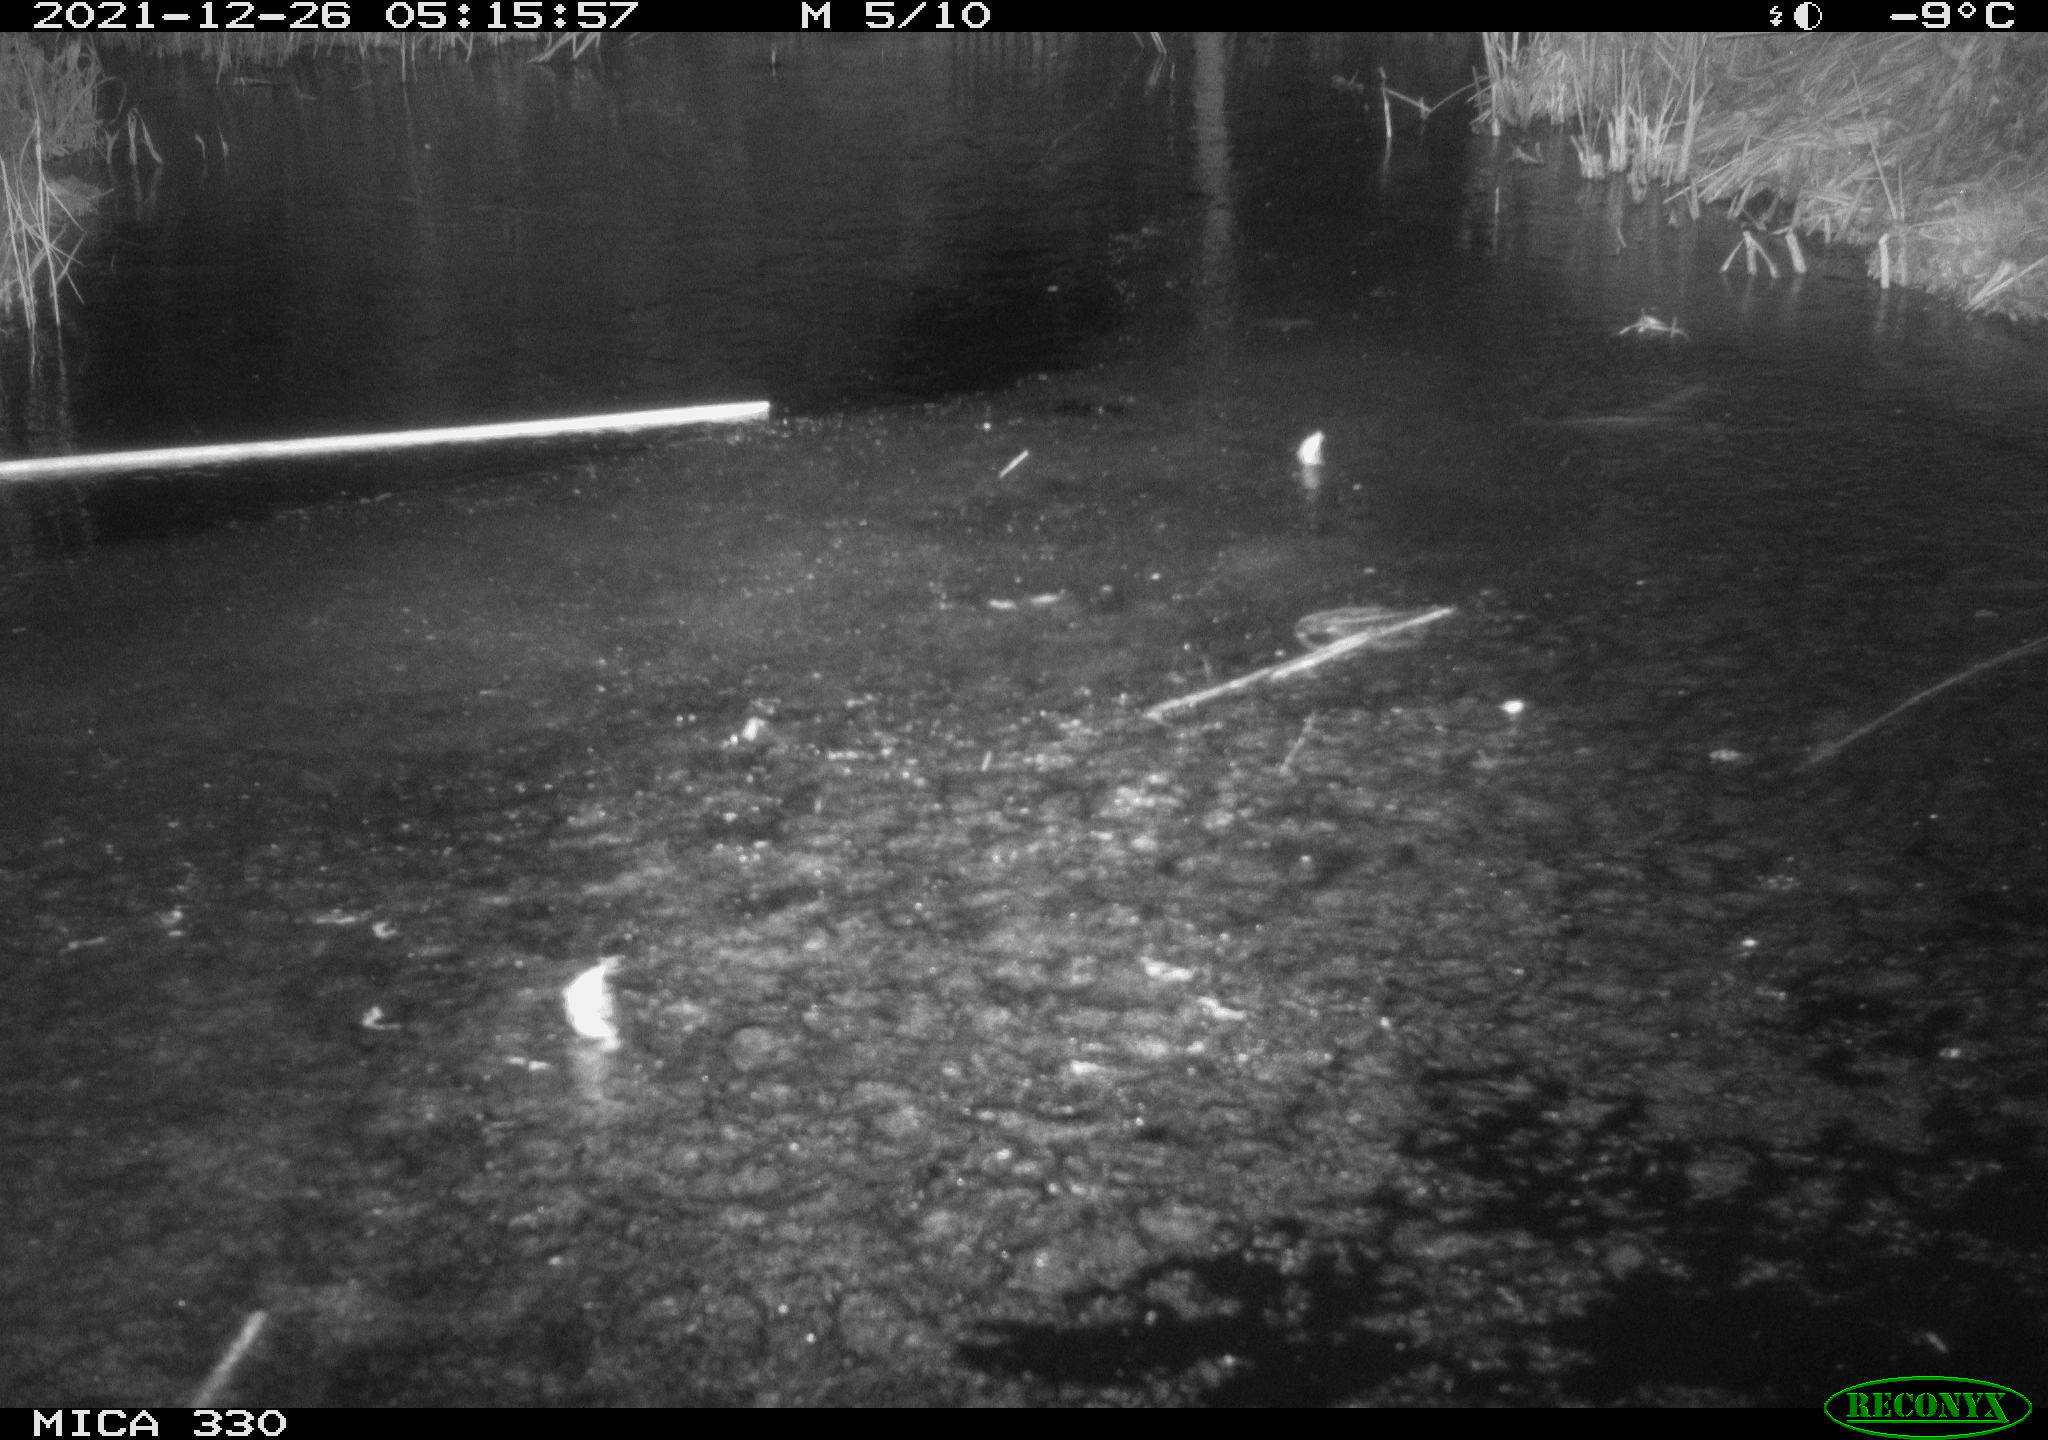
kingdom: Animalia
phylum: Chordata
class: Mammalia
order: Carnivora
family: Mustelidae
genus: Lutra
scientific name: Lutra lutra
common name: European otter
